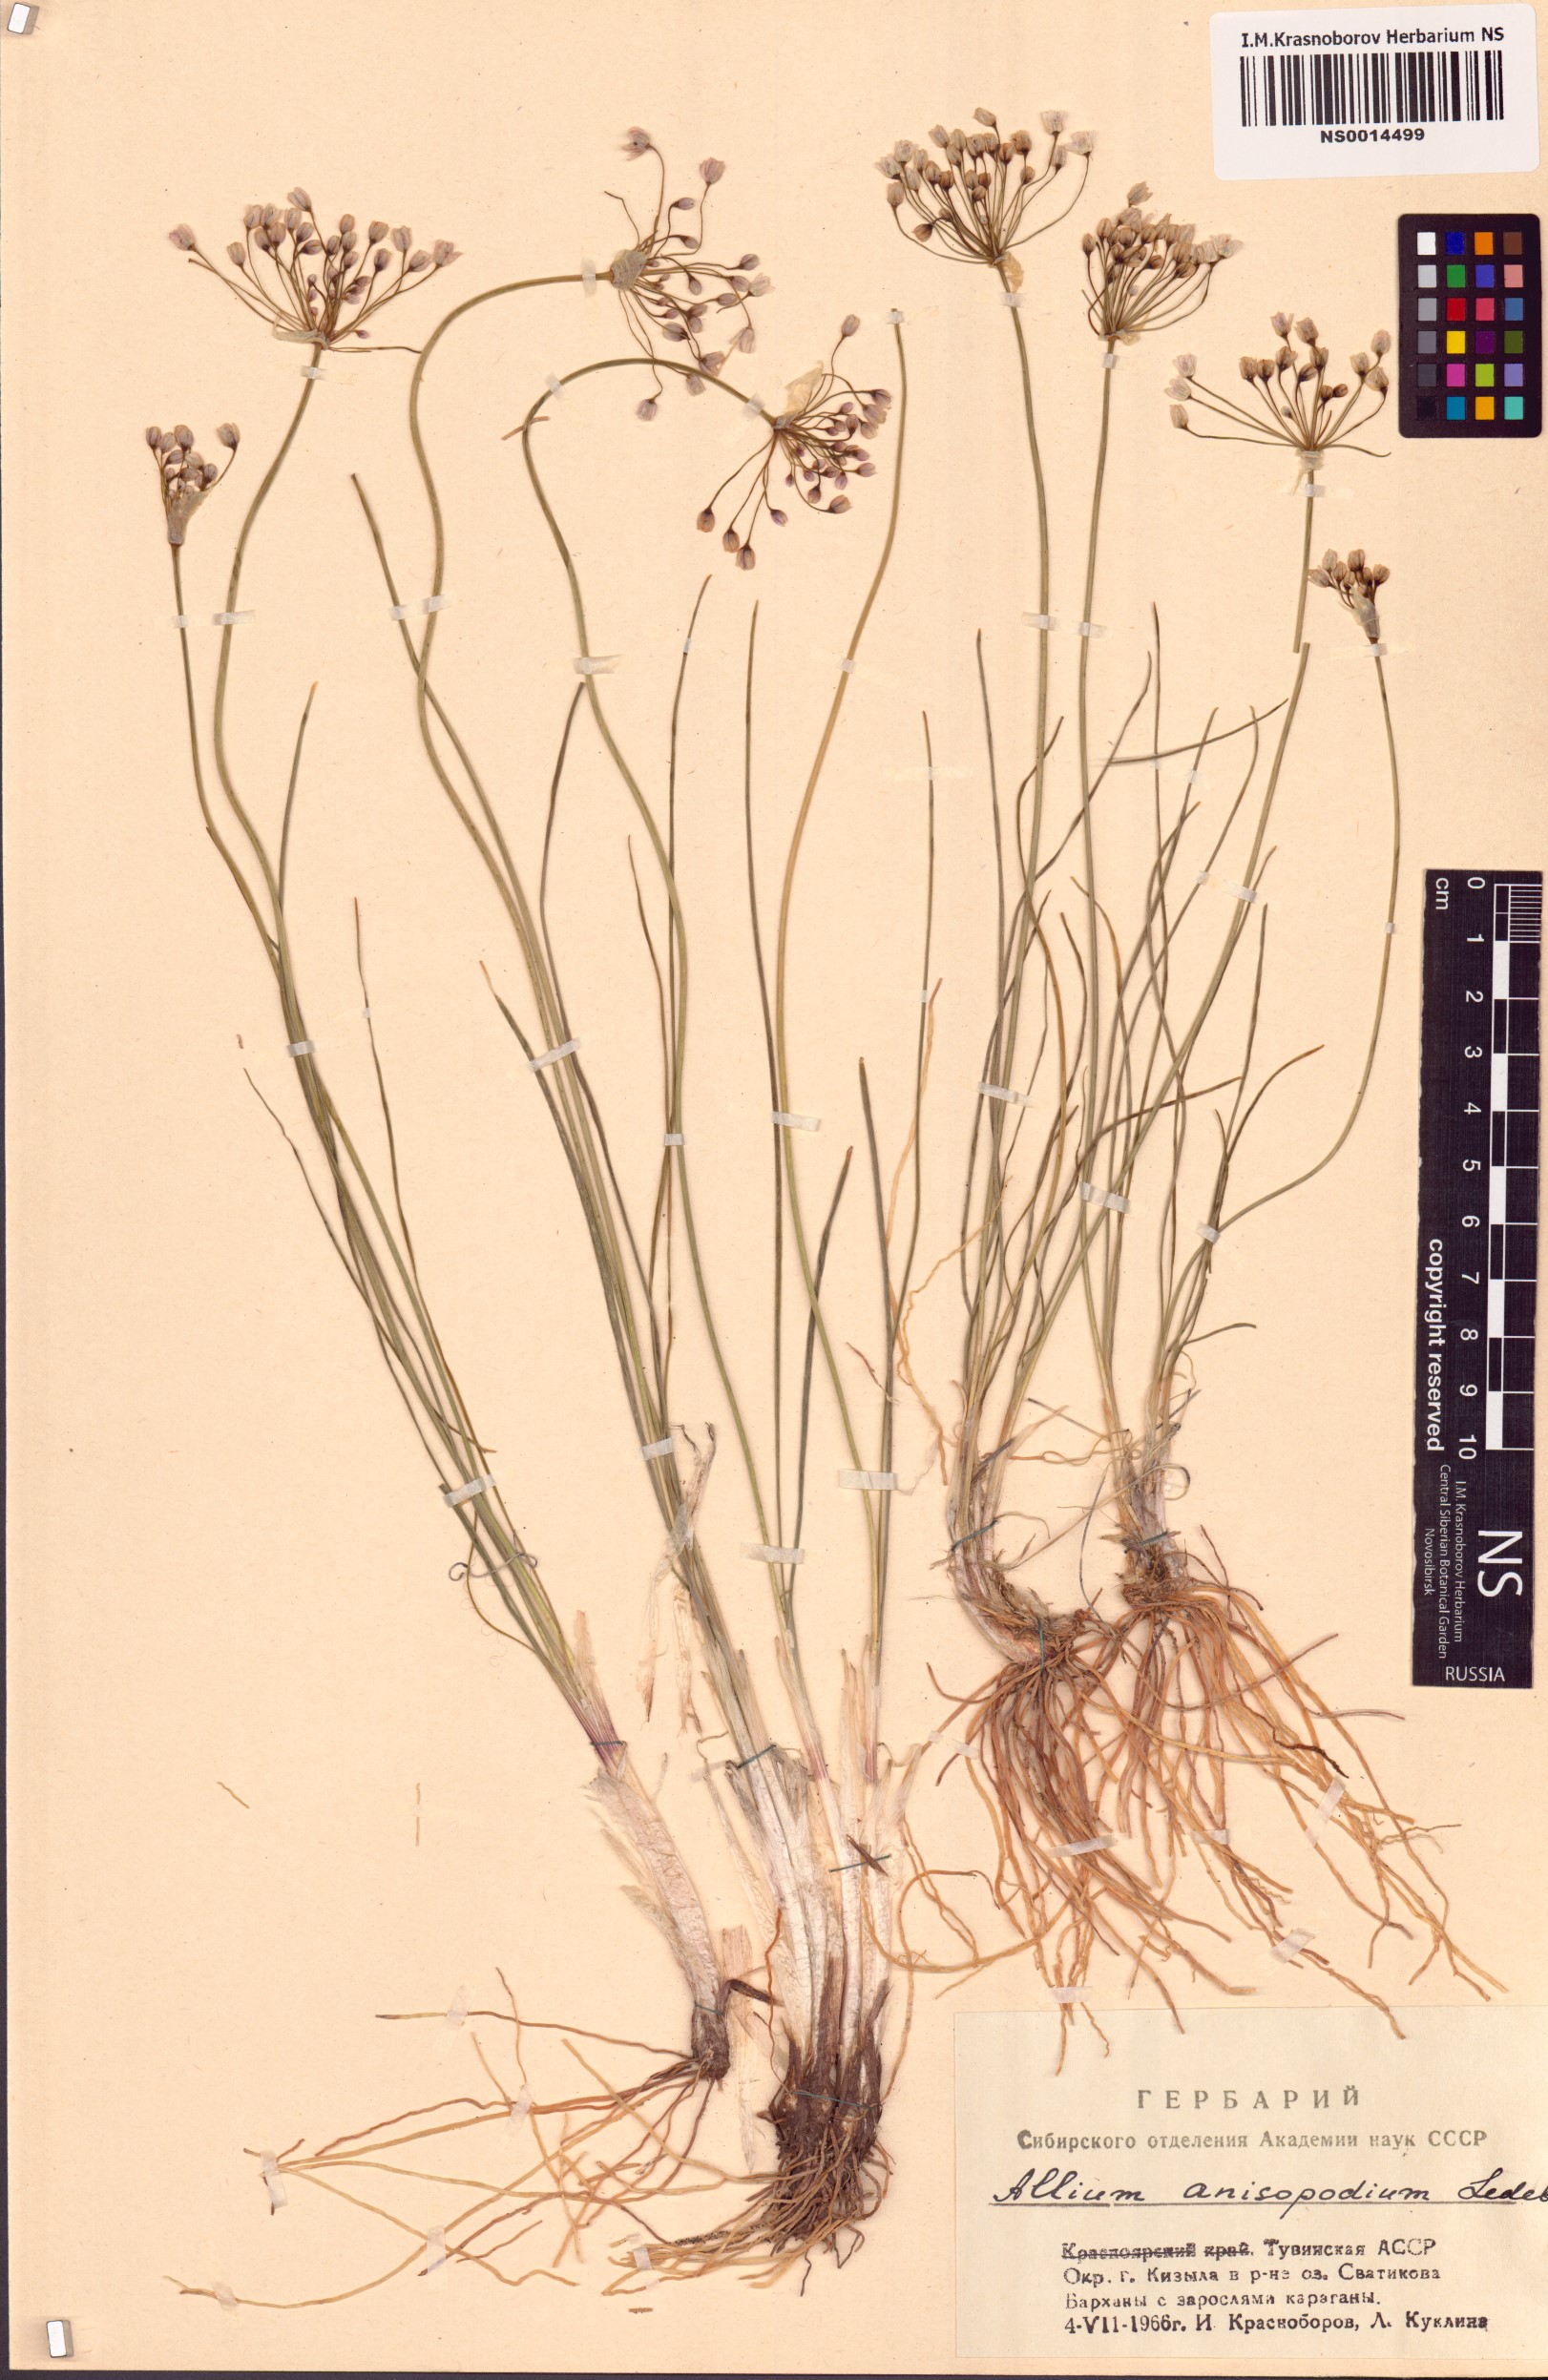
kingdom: Plantae
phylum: Tracheophyta
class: Liliopsida
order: Asparagales
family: Amaryllidaceae
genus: Allium
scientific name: Allium anisopodium
